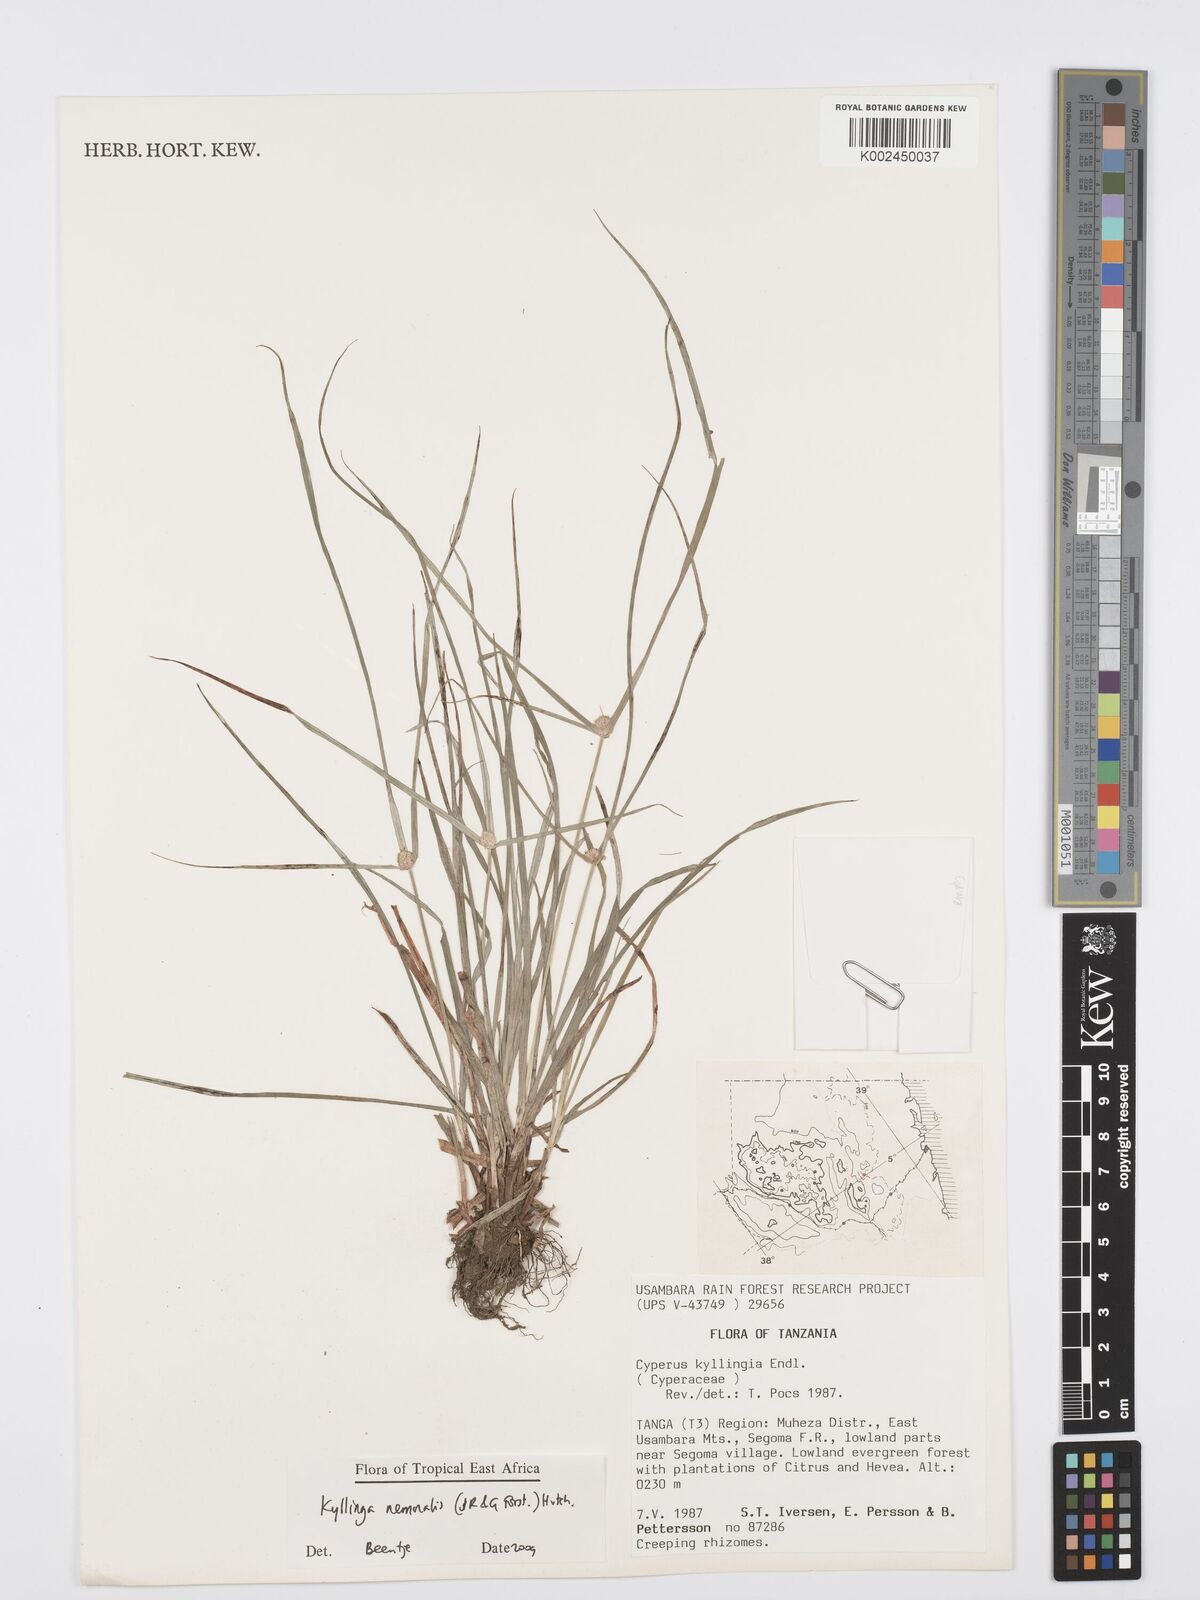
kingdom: Plantae
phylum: Tracheophyta
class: Liliopsida
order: Poales
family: Cyperaceae
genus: Cyperus
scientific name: Cyperus nemoralis
